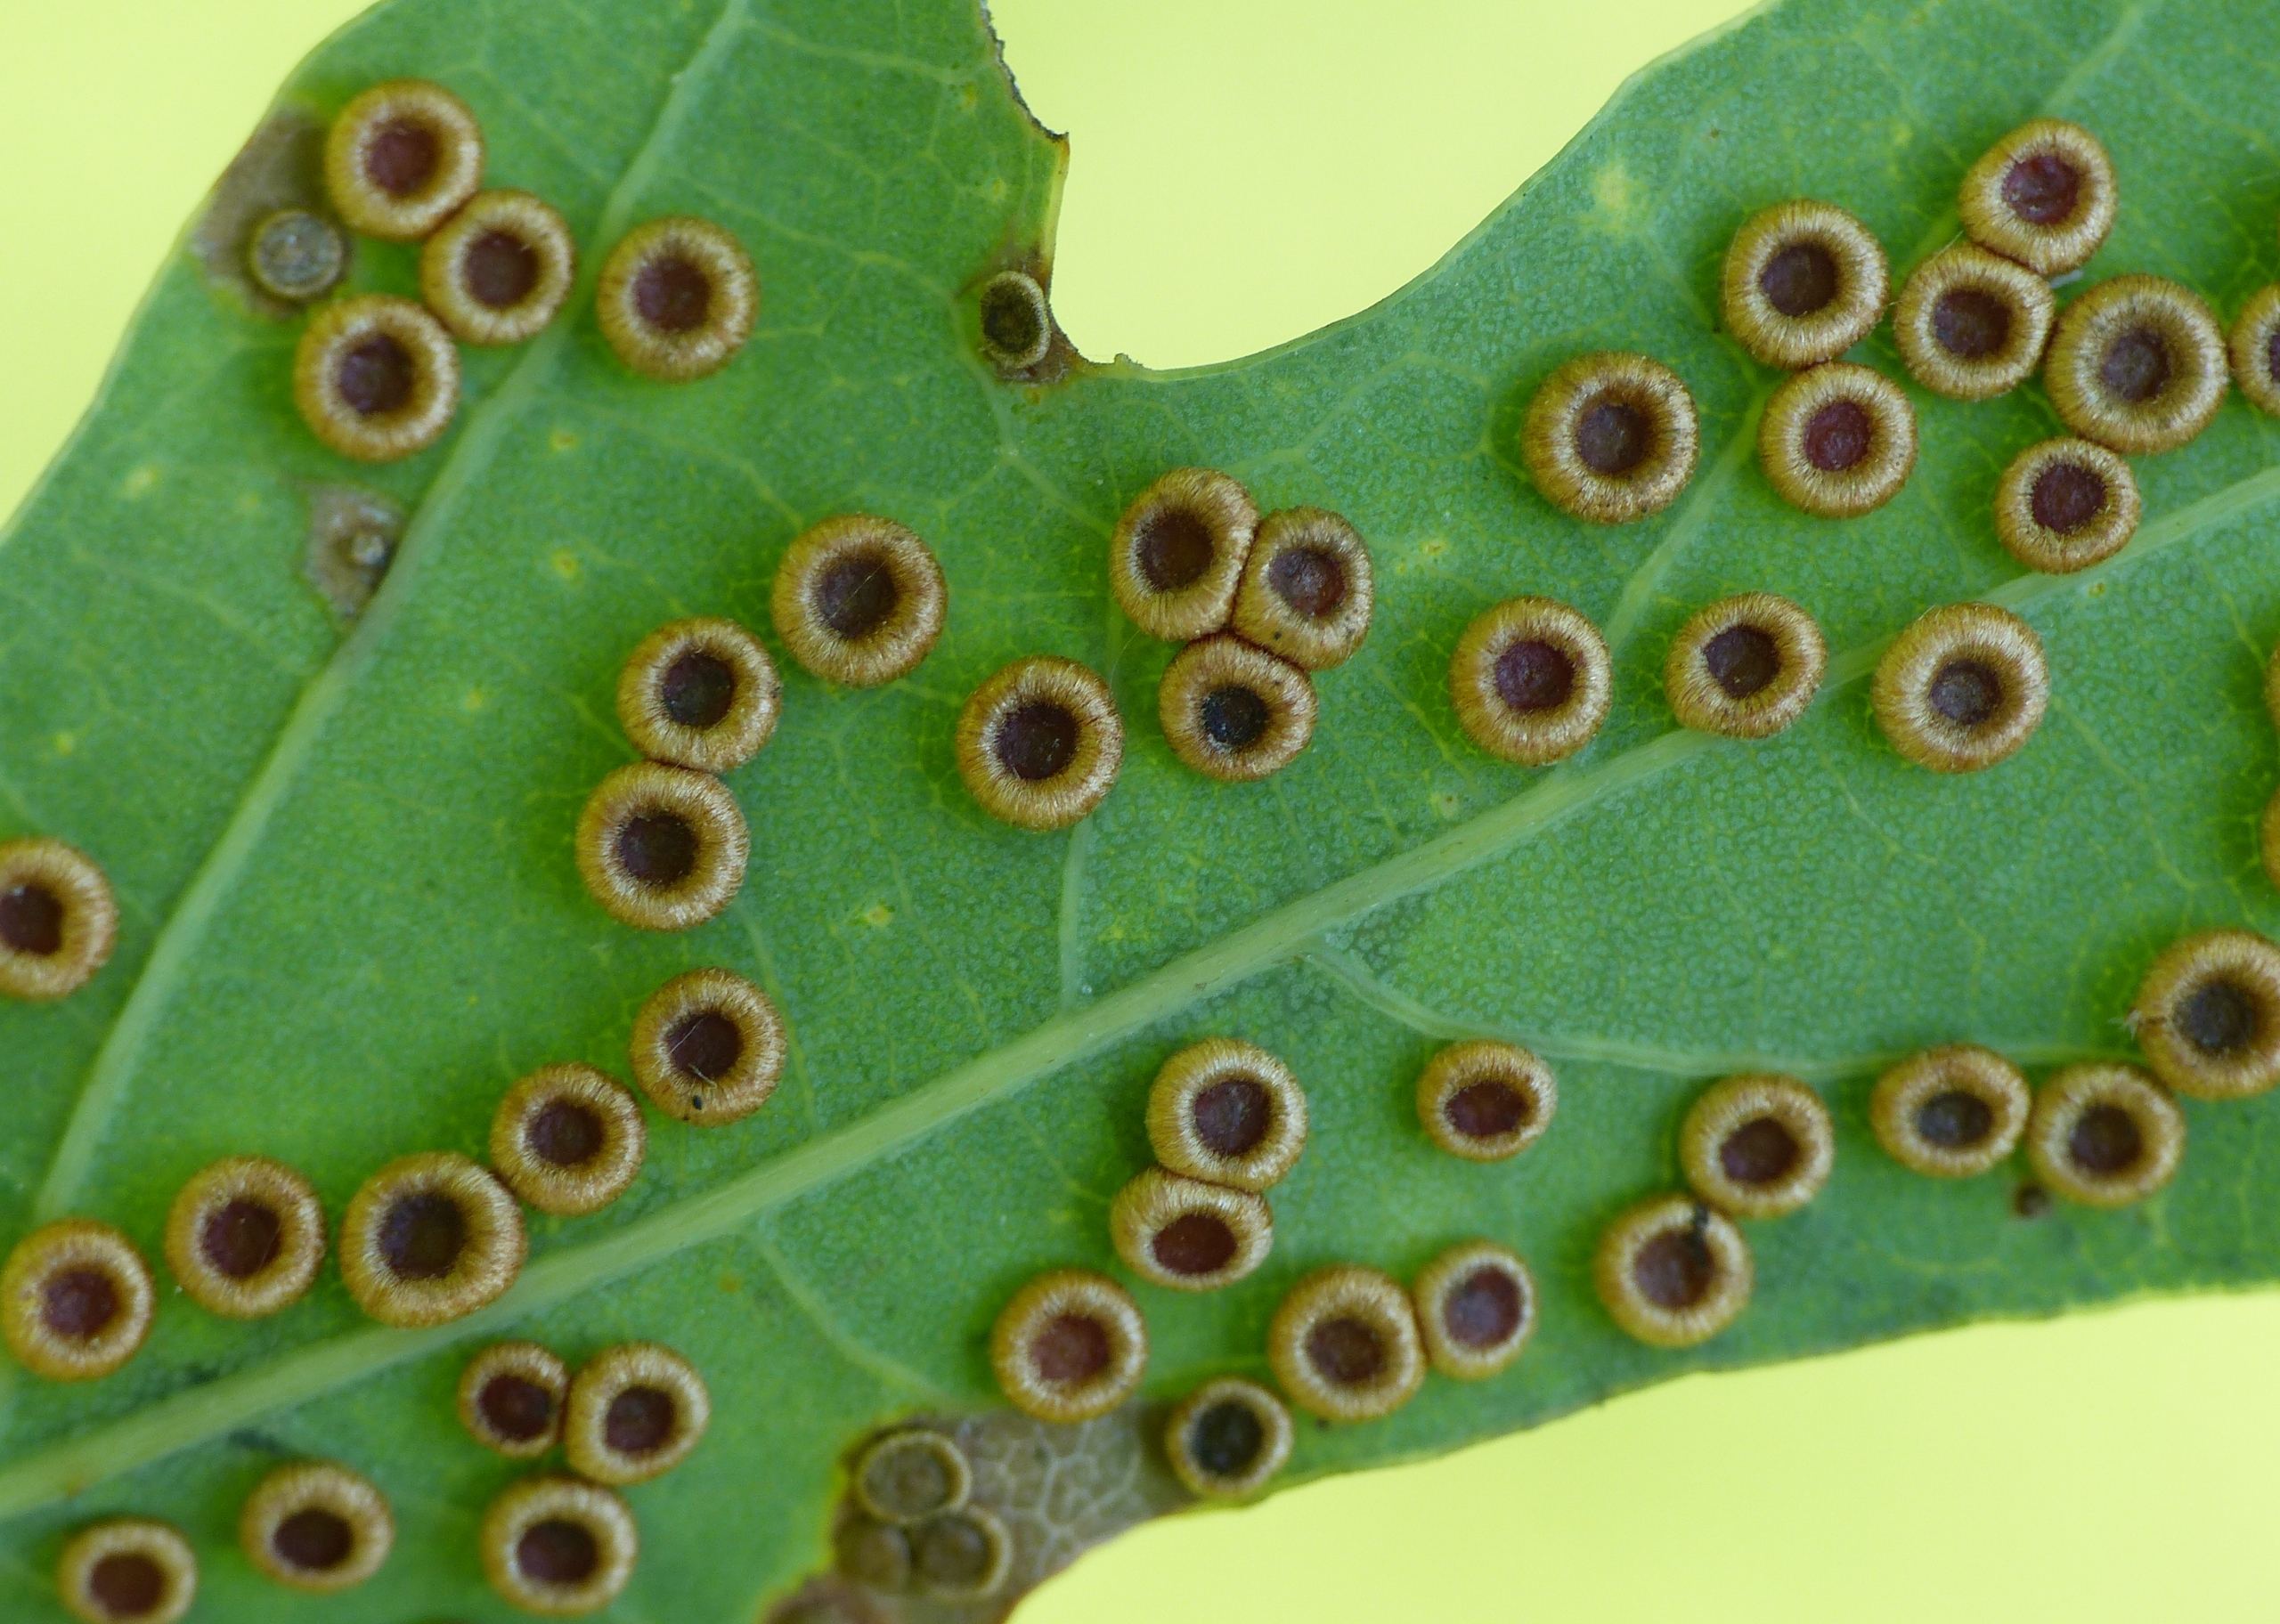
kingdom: Animalia
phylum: Arthropoda
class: Insecta
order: Hymenoptera
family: Cynipidae
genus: Neuroterus
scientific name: Neuroterus numismalis
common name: Knapgalhveps
